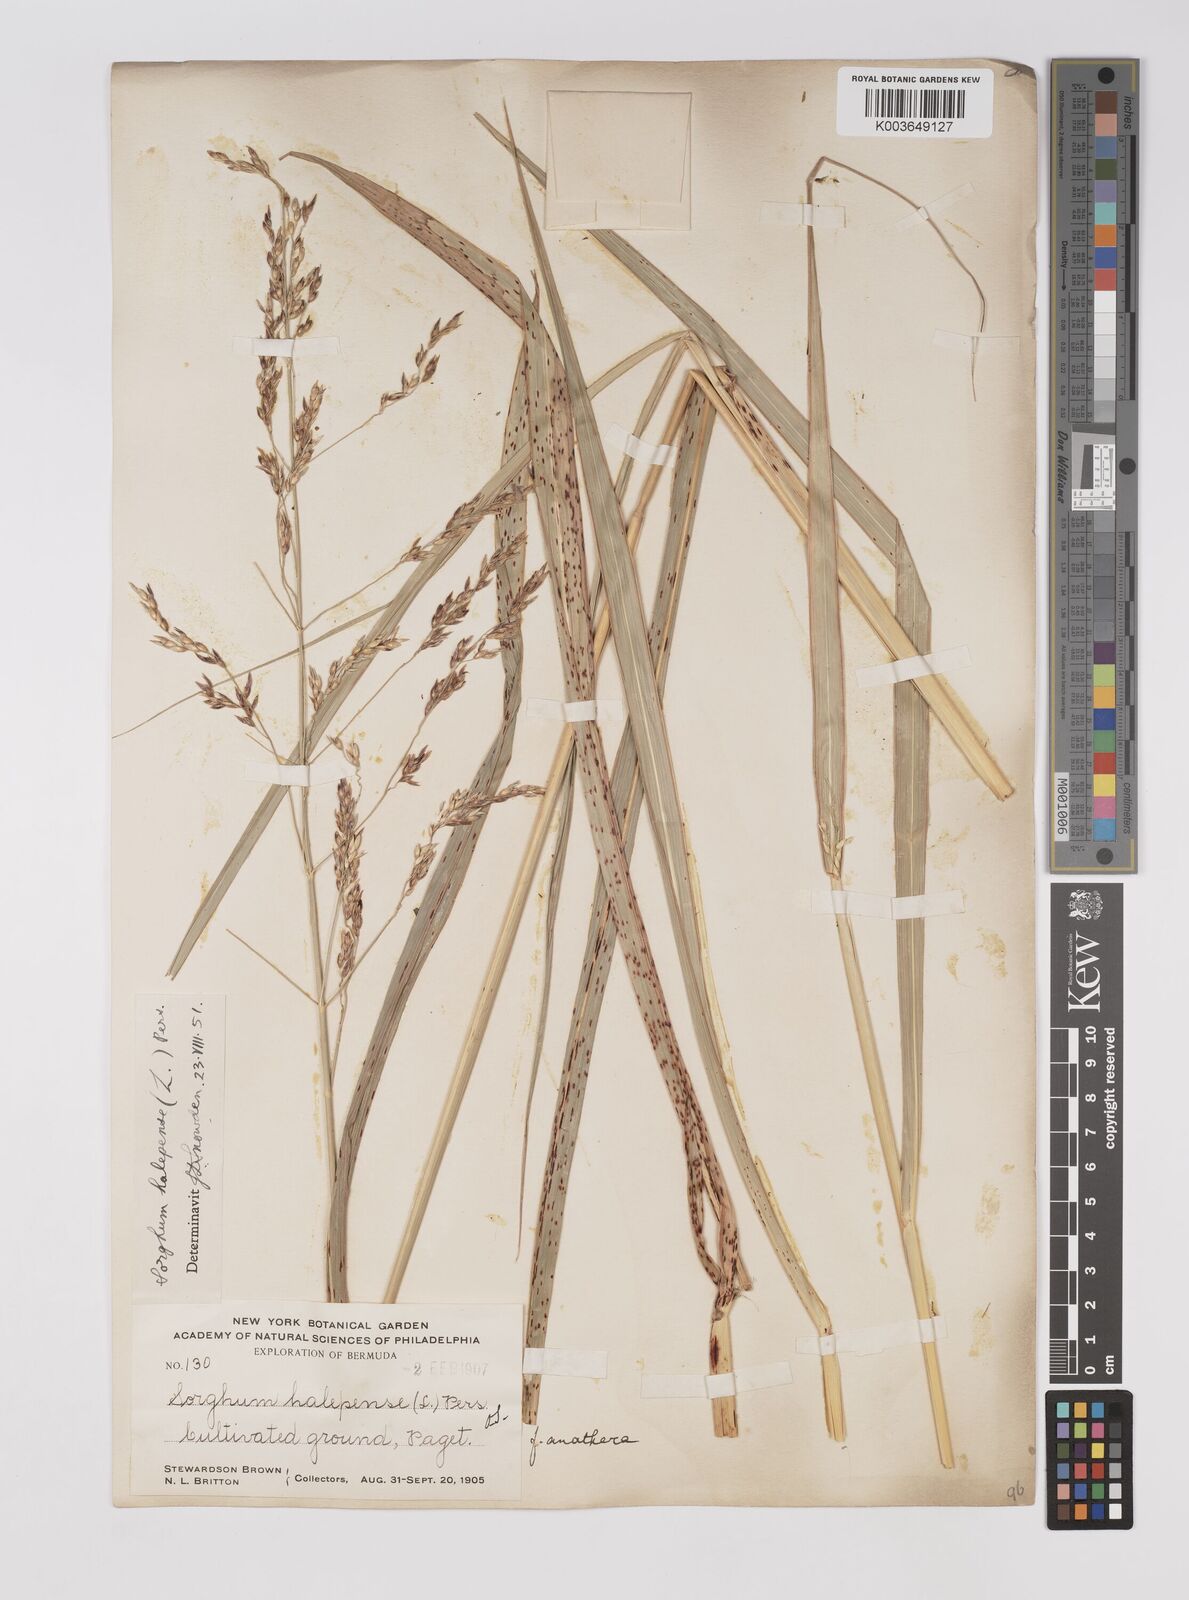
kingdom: Plantae
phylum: Tracheophyta
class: Liliopsida
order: Poales
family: Poaceae
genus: Sorghum
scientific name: Sorghum halepense
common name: Johnson-grass
